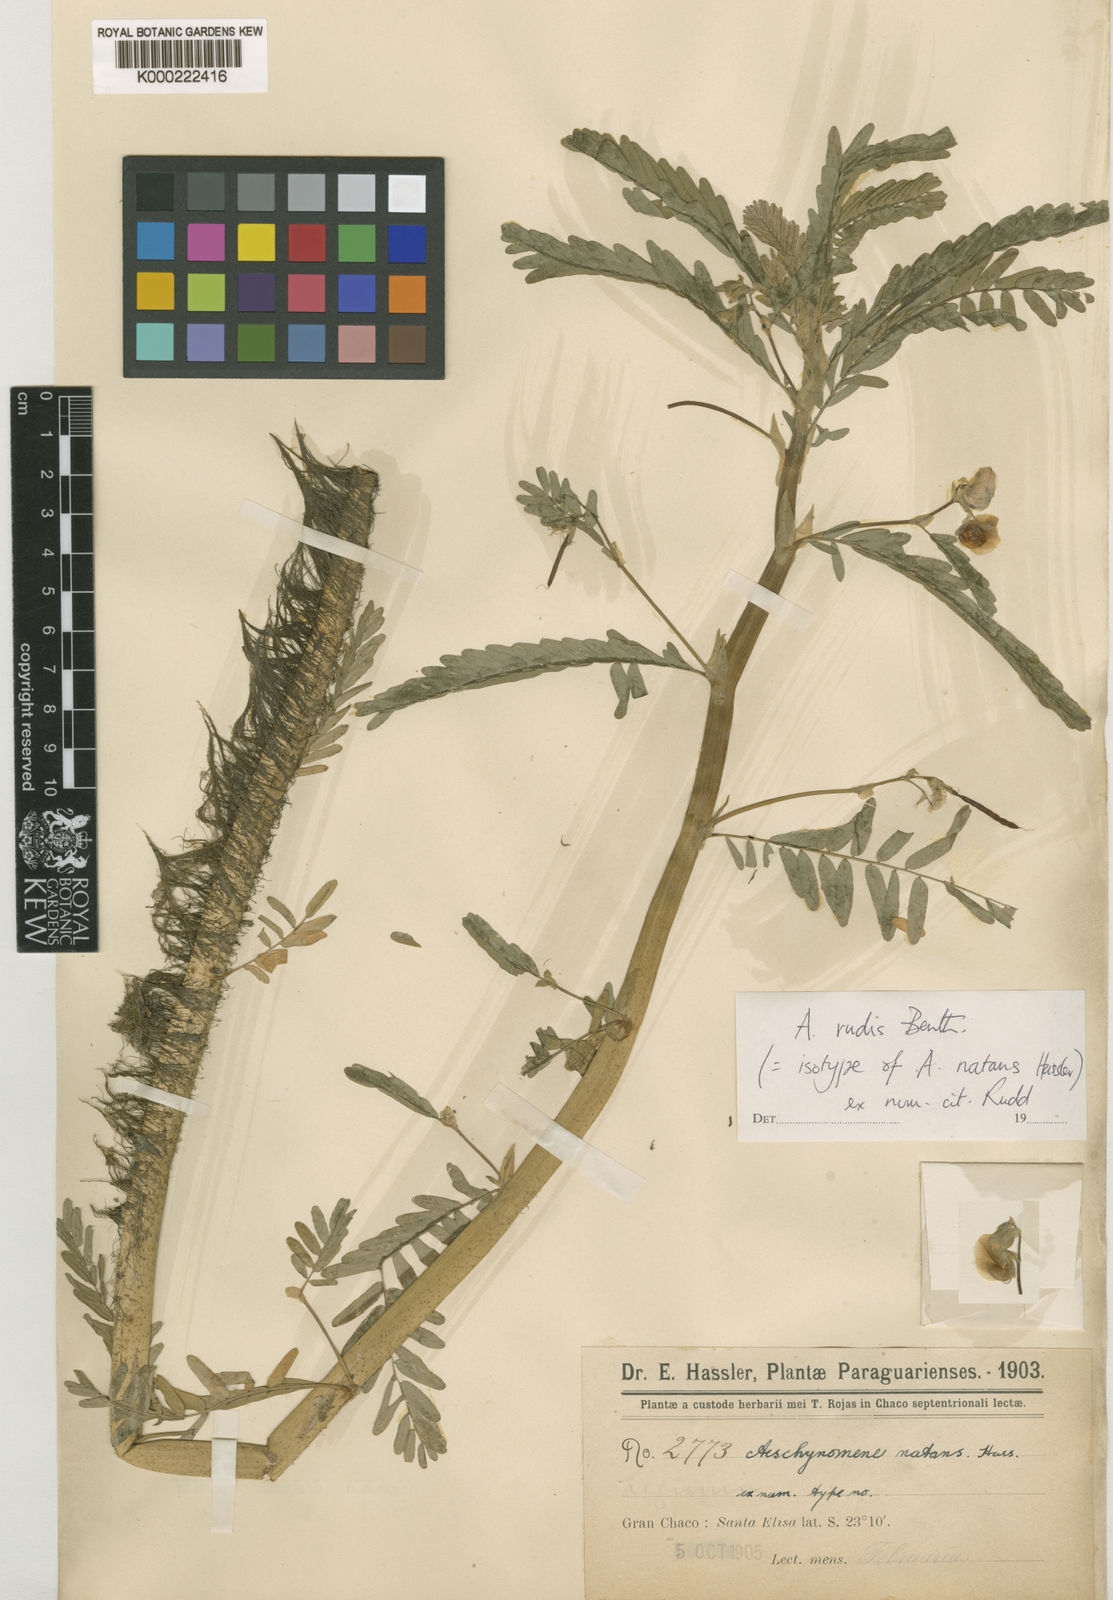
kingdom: Plantae
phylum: Tracheophyta
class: Magnoliopsida
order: Fabales
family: Fabaceae
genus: Aeschynomene
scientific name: Aeschynomene rudis
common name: Rough joint-vetch
